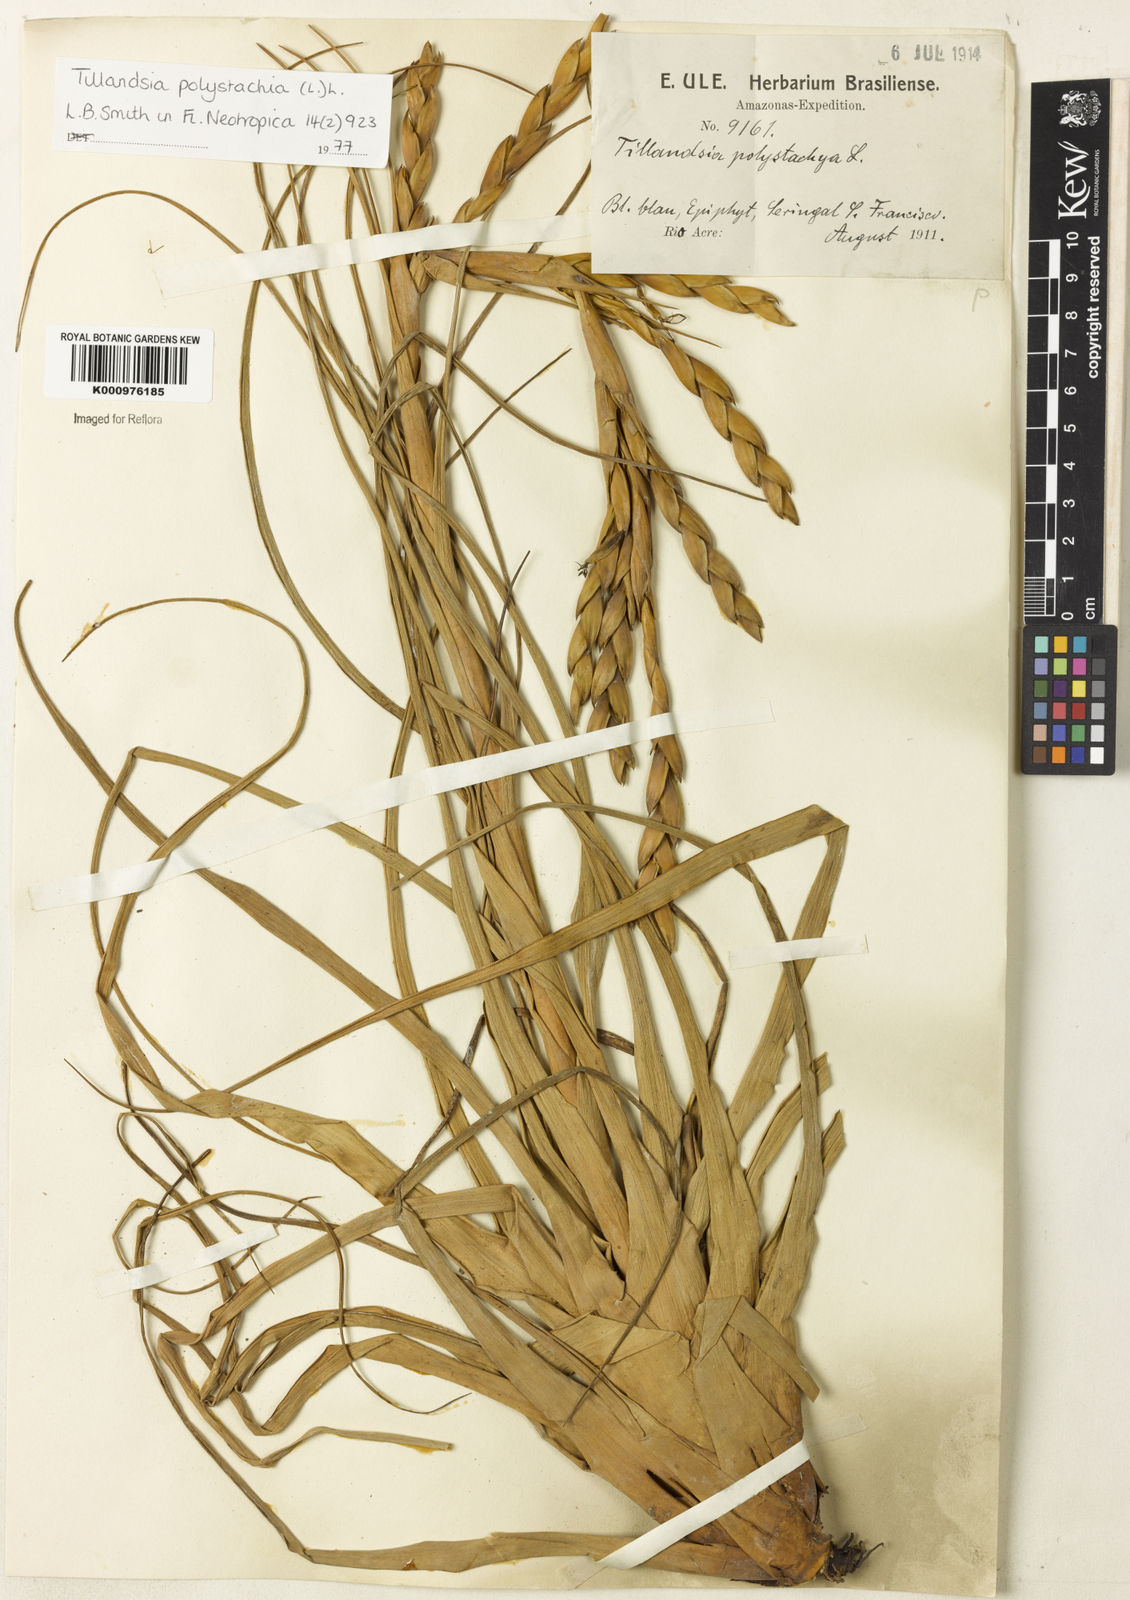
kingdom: Plantae
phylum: Tracheophyta
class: Liliopsida
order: Poales
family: Bromeliaceae
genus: Tillandsia
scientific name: Tillandsia polystachia
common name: Airplant
